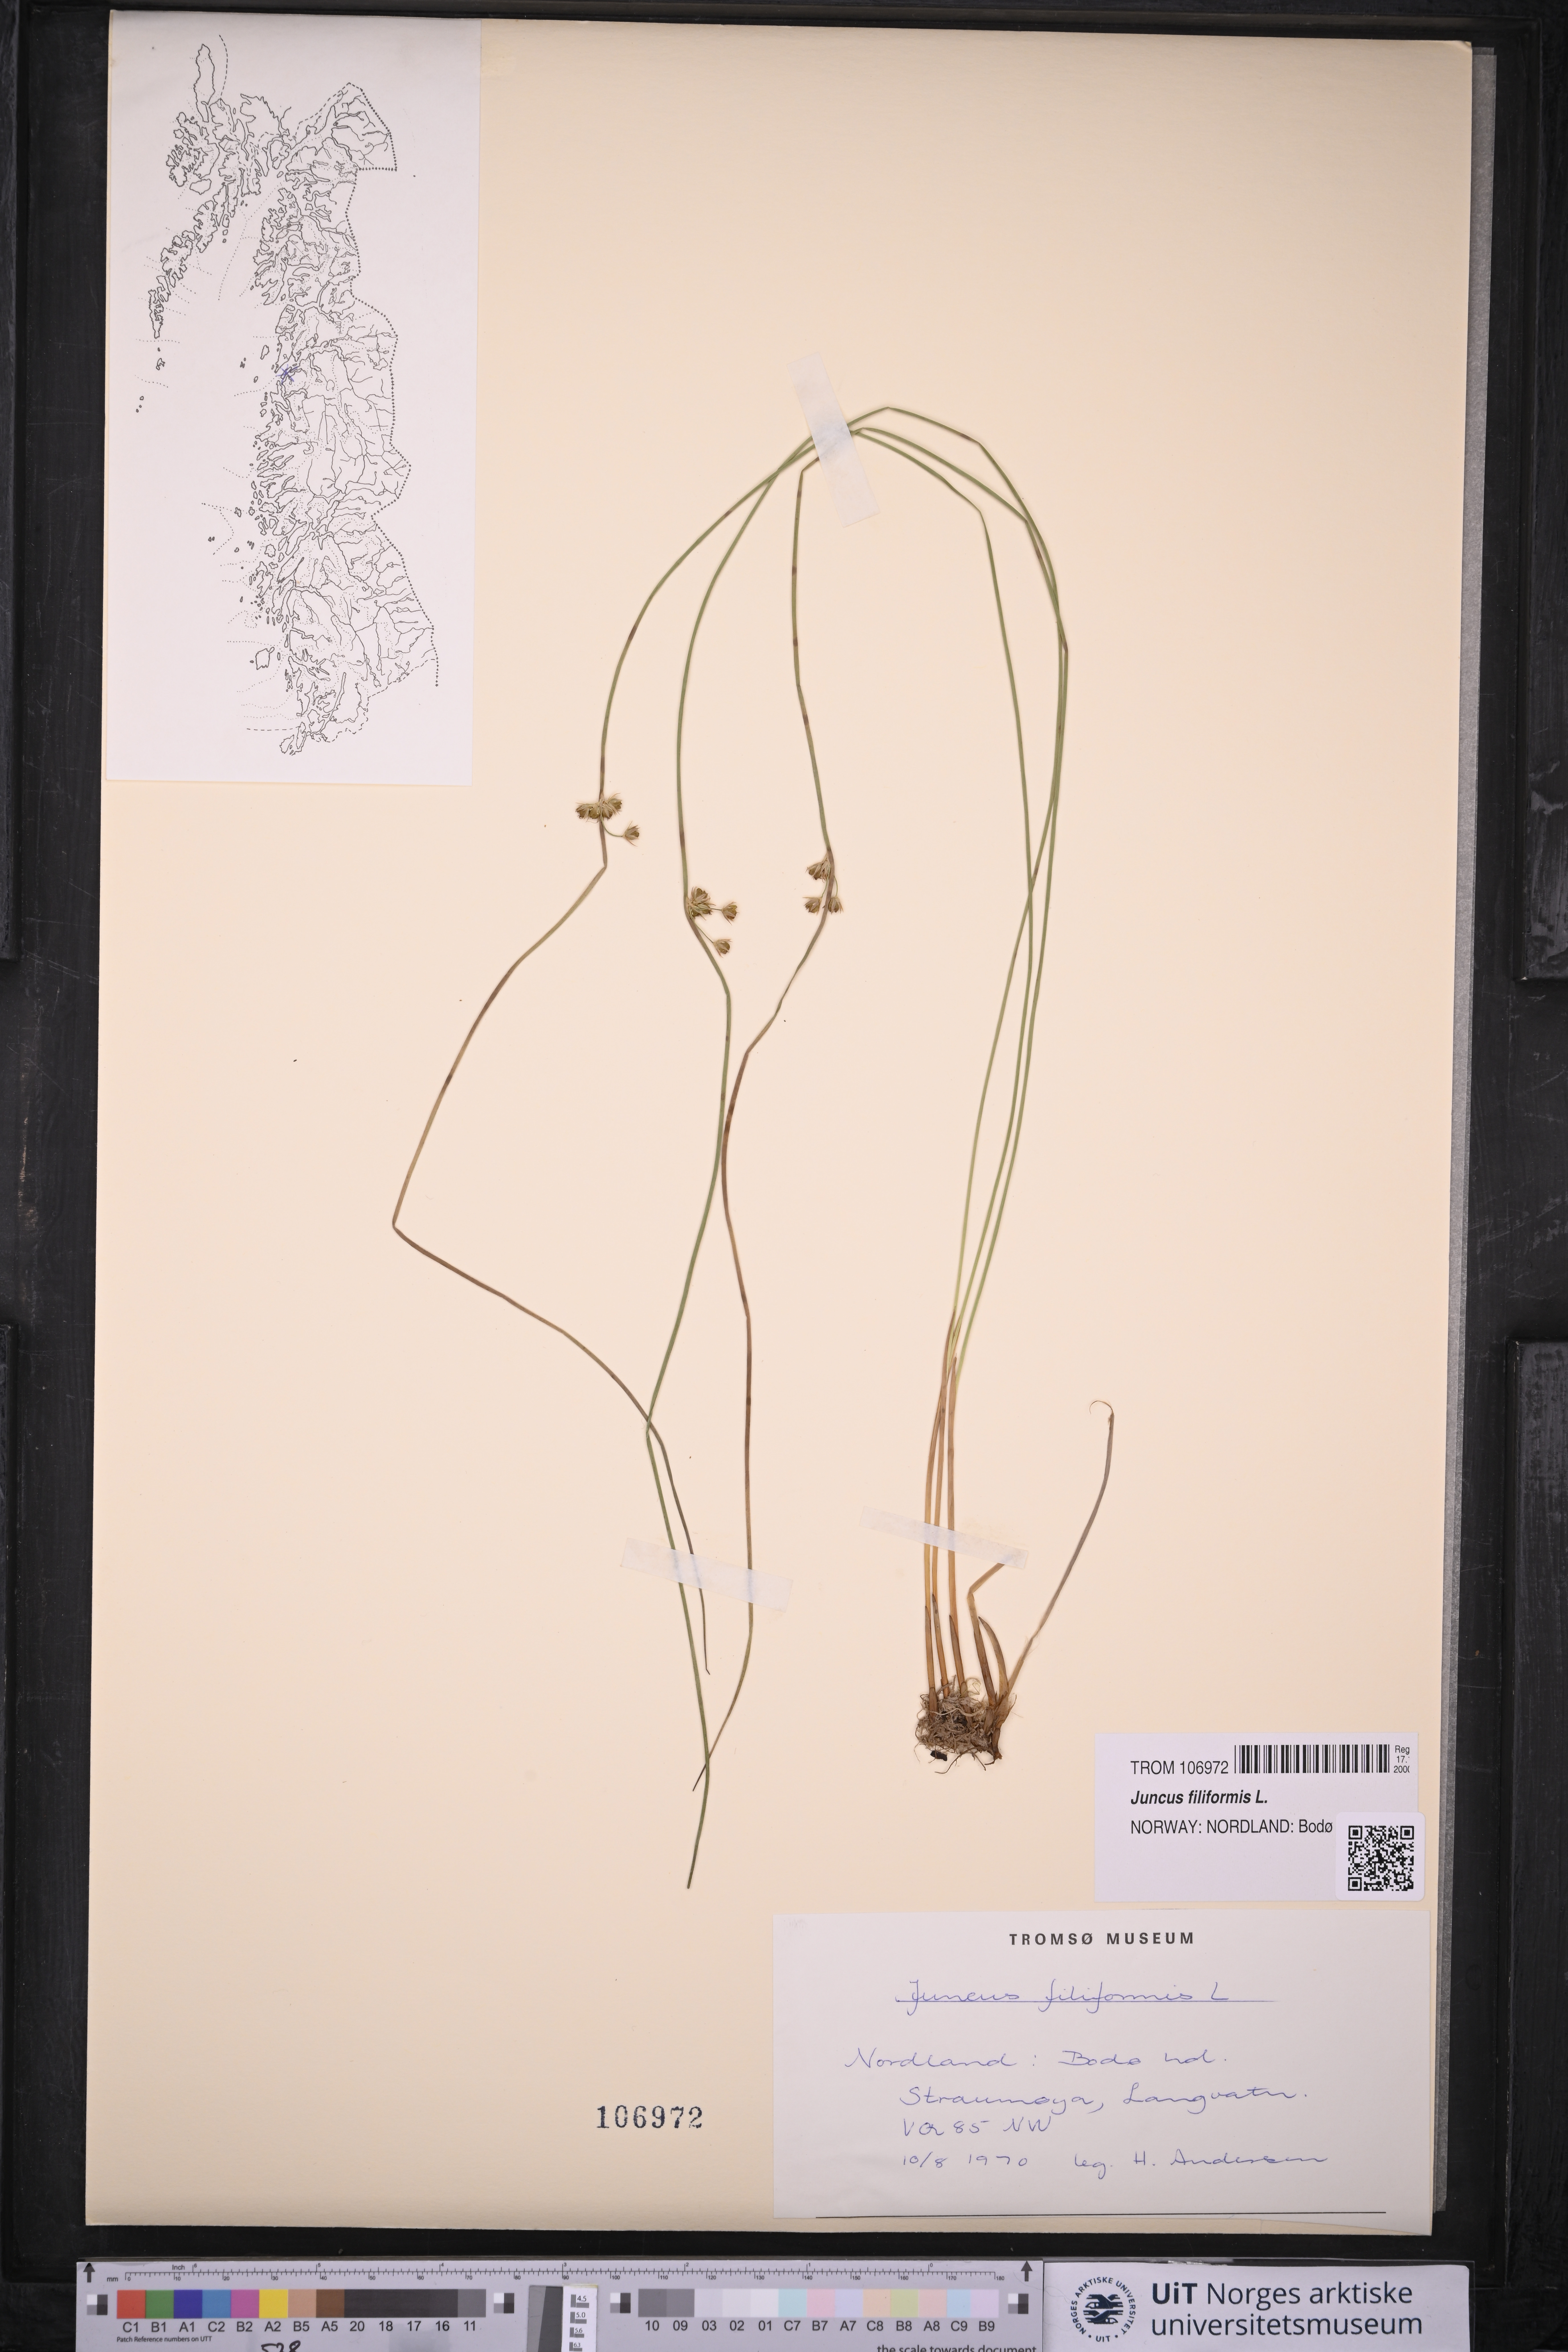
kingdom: Plantae
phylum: Tracheophyta
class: Liliopsida
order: Poales
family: Juncaceae
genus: Juncus
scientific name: Juncus filiformis
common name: Thread rush
